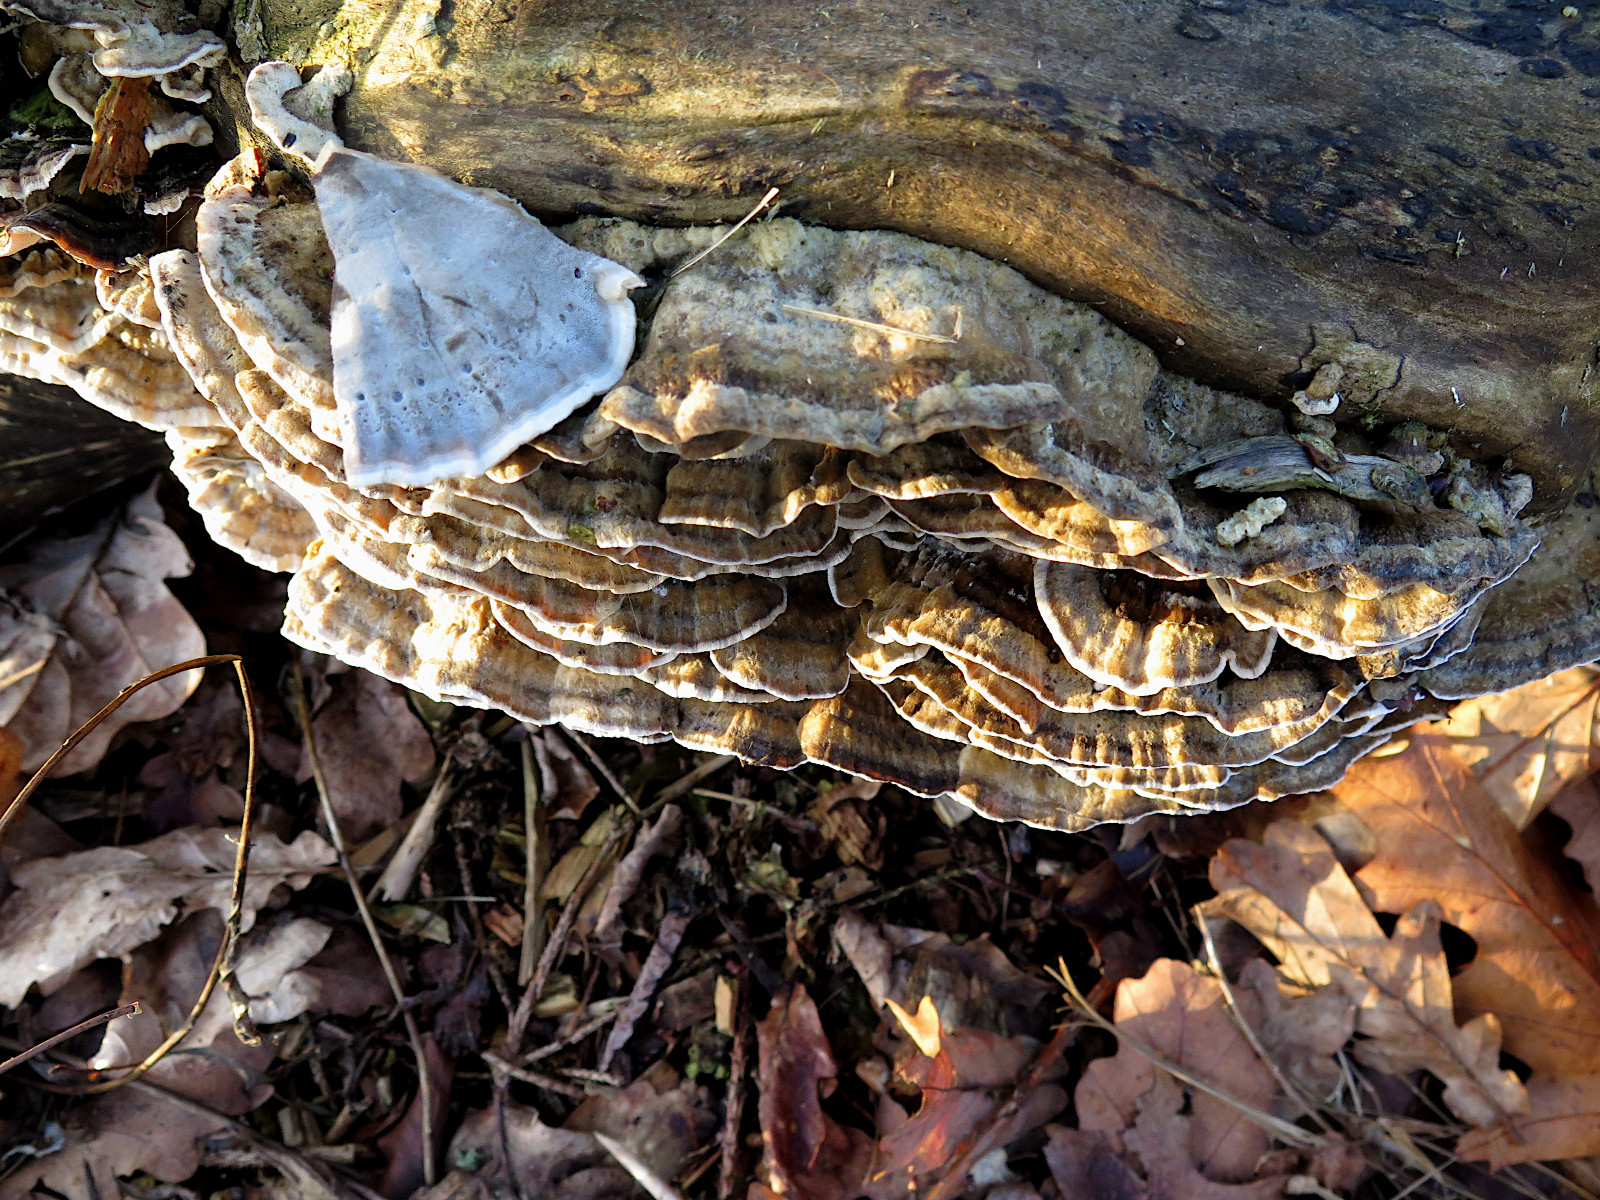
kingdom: Fungi
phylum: Basidiomycota
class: Agaricomycetes
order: Polyporales
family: Phanerochaetaceae
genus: Bjerkandera
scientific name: Bjerkandera adusta
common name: sveden sodporesvamp
